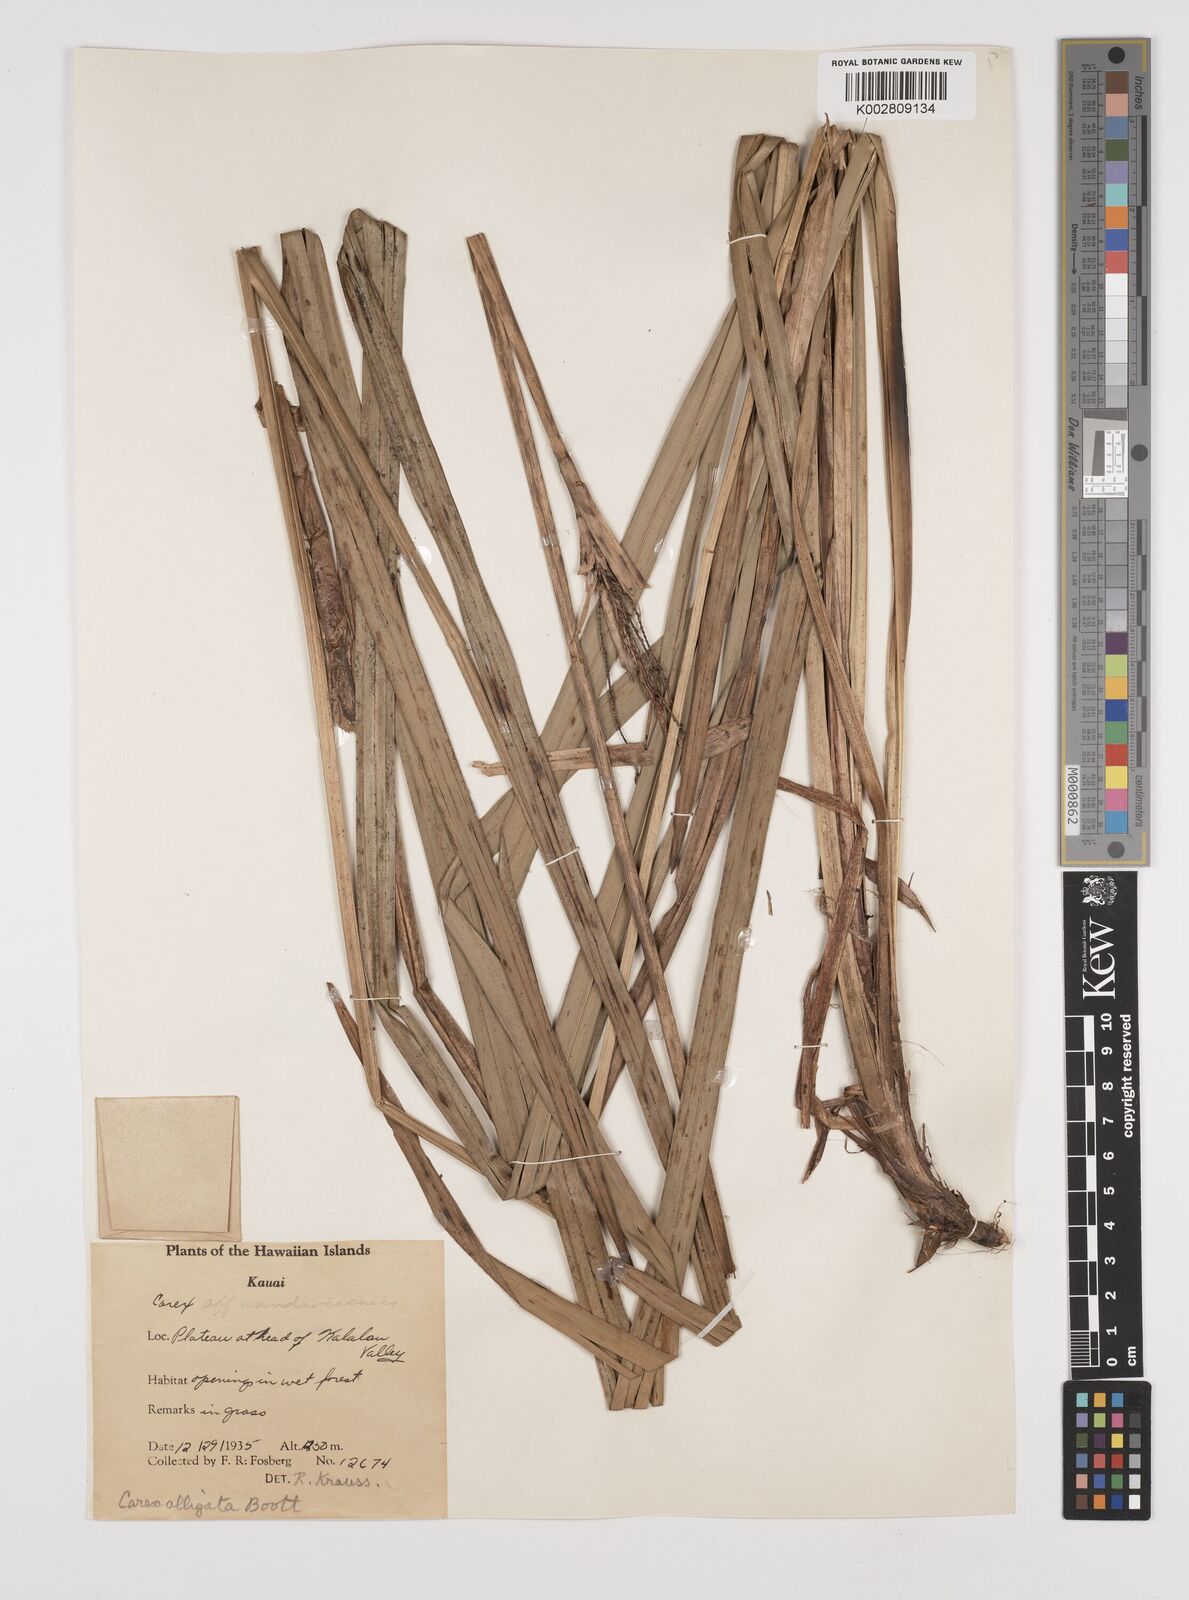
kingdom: Plantae
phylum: Tracheophyta
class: Liliopsida
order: Poales
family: Cyperaceae
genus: Carex
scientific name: Carex alligata
